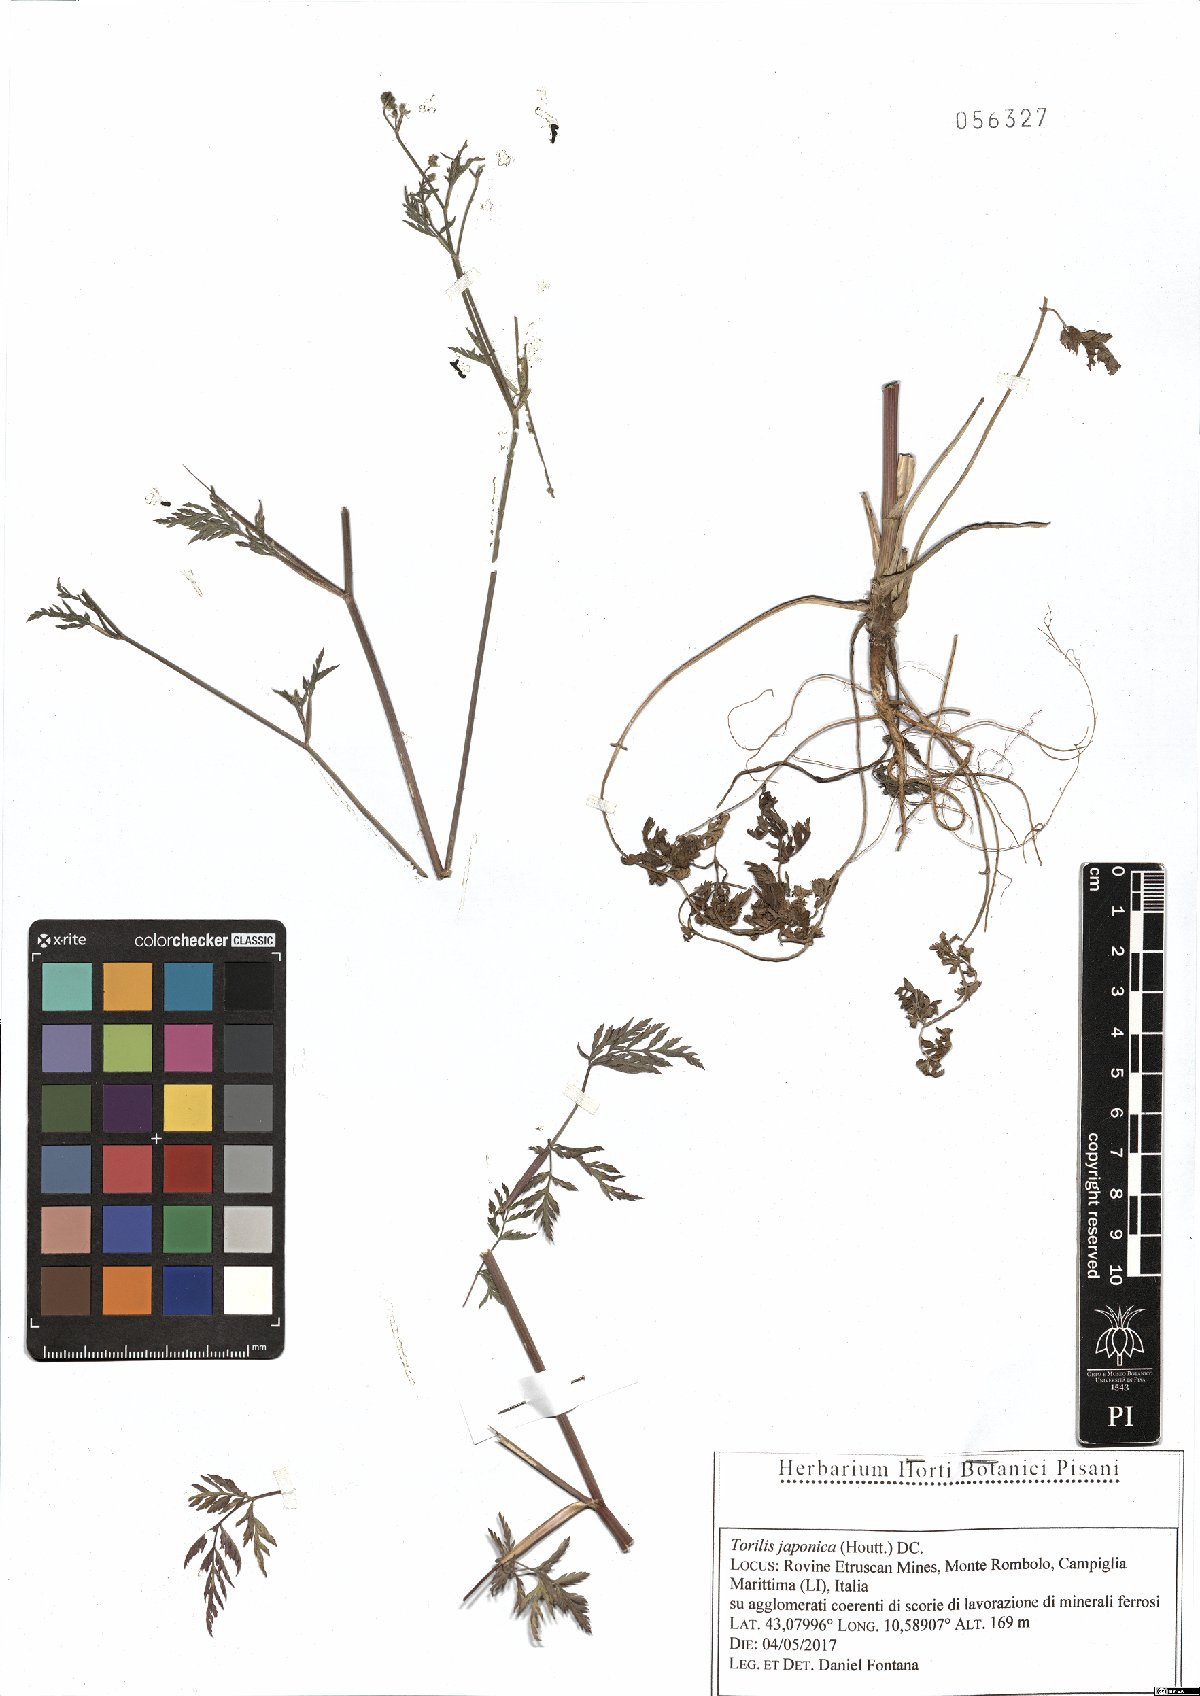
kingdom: Plantae
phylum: Tracheophyta
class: Magnoliopsida
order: Apiales
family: Apiaceae
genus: Torilis
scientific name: Torilis japonica
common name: Upright hedge-parsley
